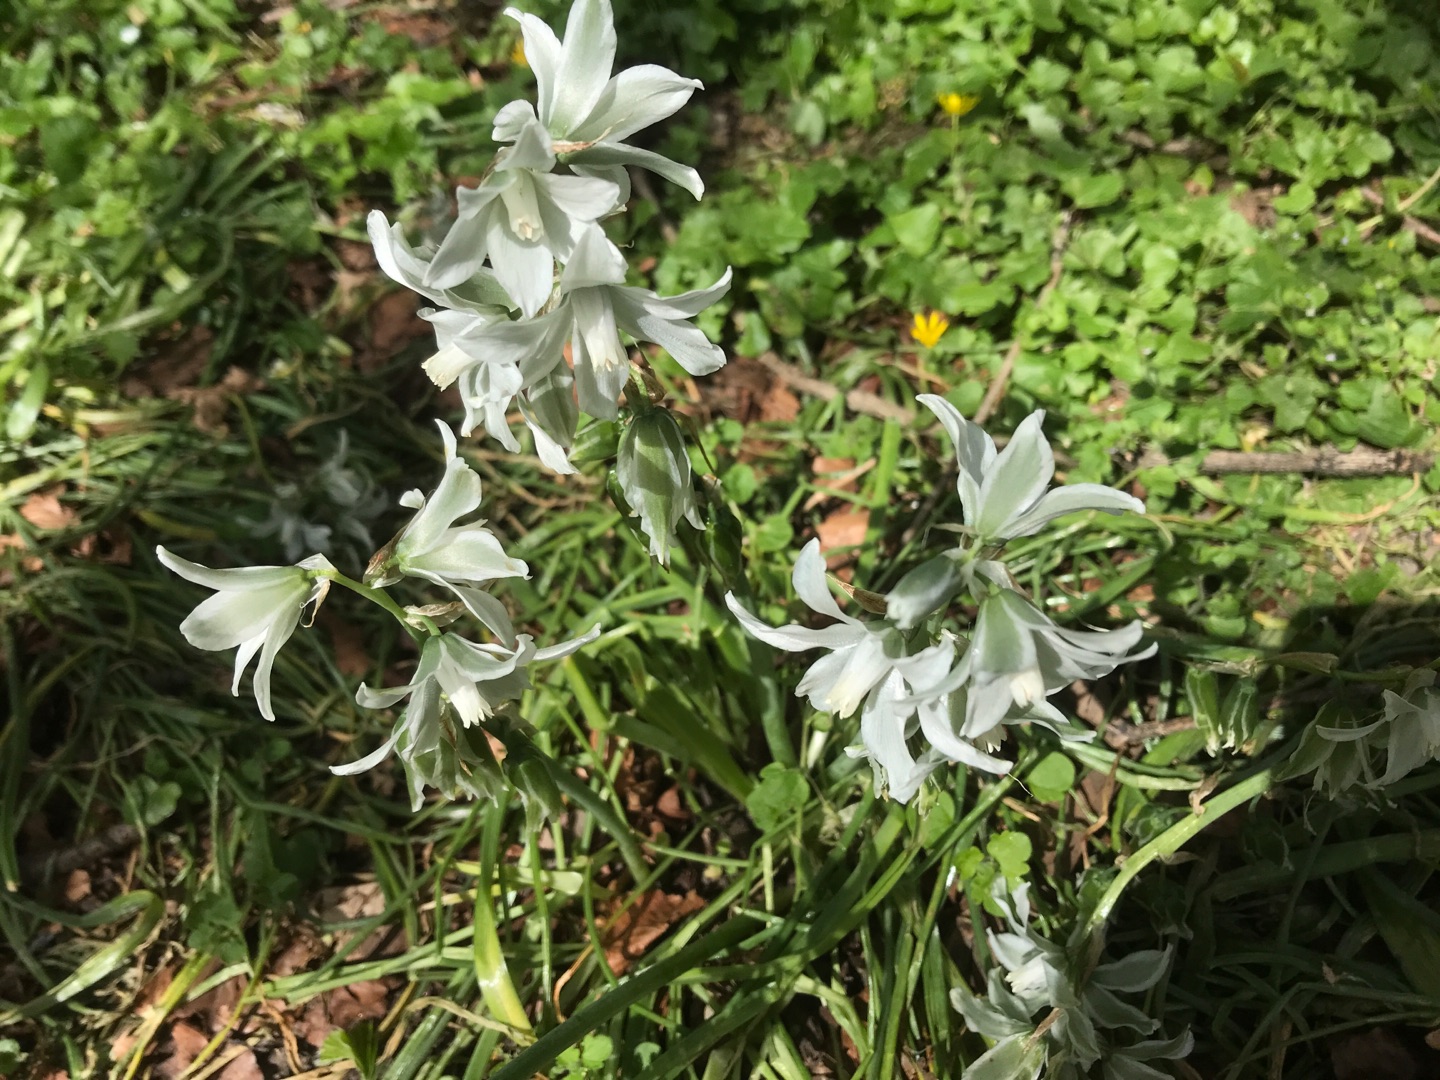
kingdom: Plantae
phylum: Tracheophyta
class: Liliopsida
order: Asparagales
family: Asparagaceae
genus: Ornithogalum
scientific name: Ornithogalum nutans
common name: Nikkende fuglemælk
